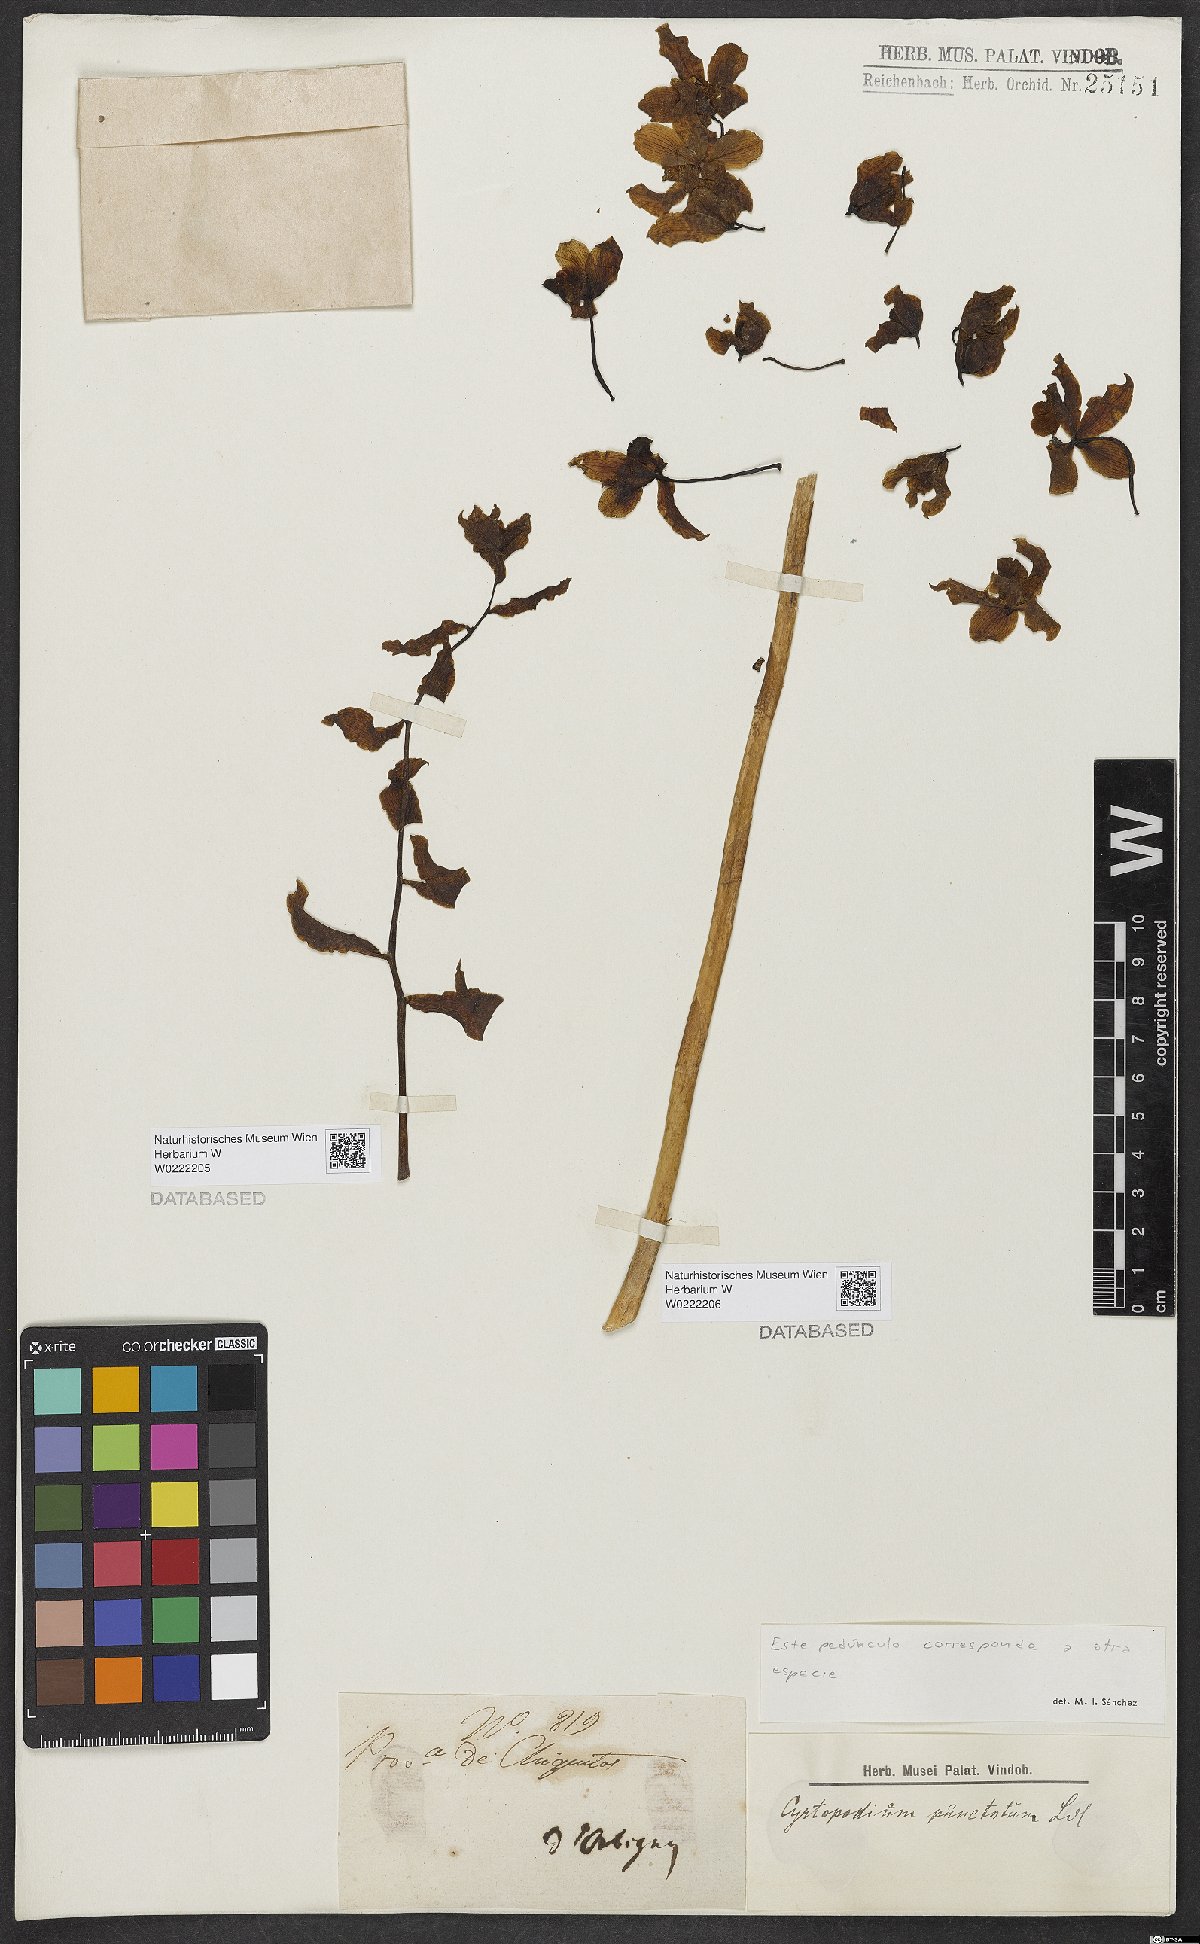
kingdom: Plantae
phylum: Tracheophyta
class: Liliopsida
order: Asparagales
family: Orchidaceae
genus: Cyrtopodium
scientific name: Cyrtopodium
